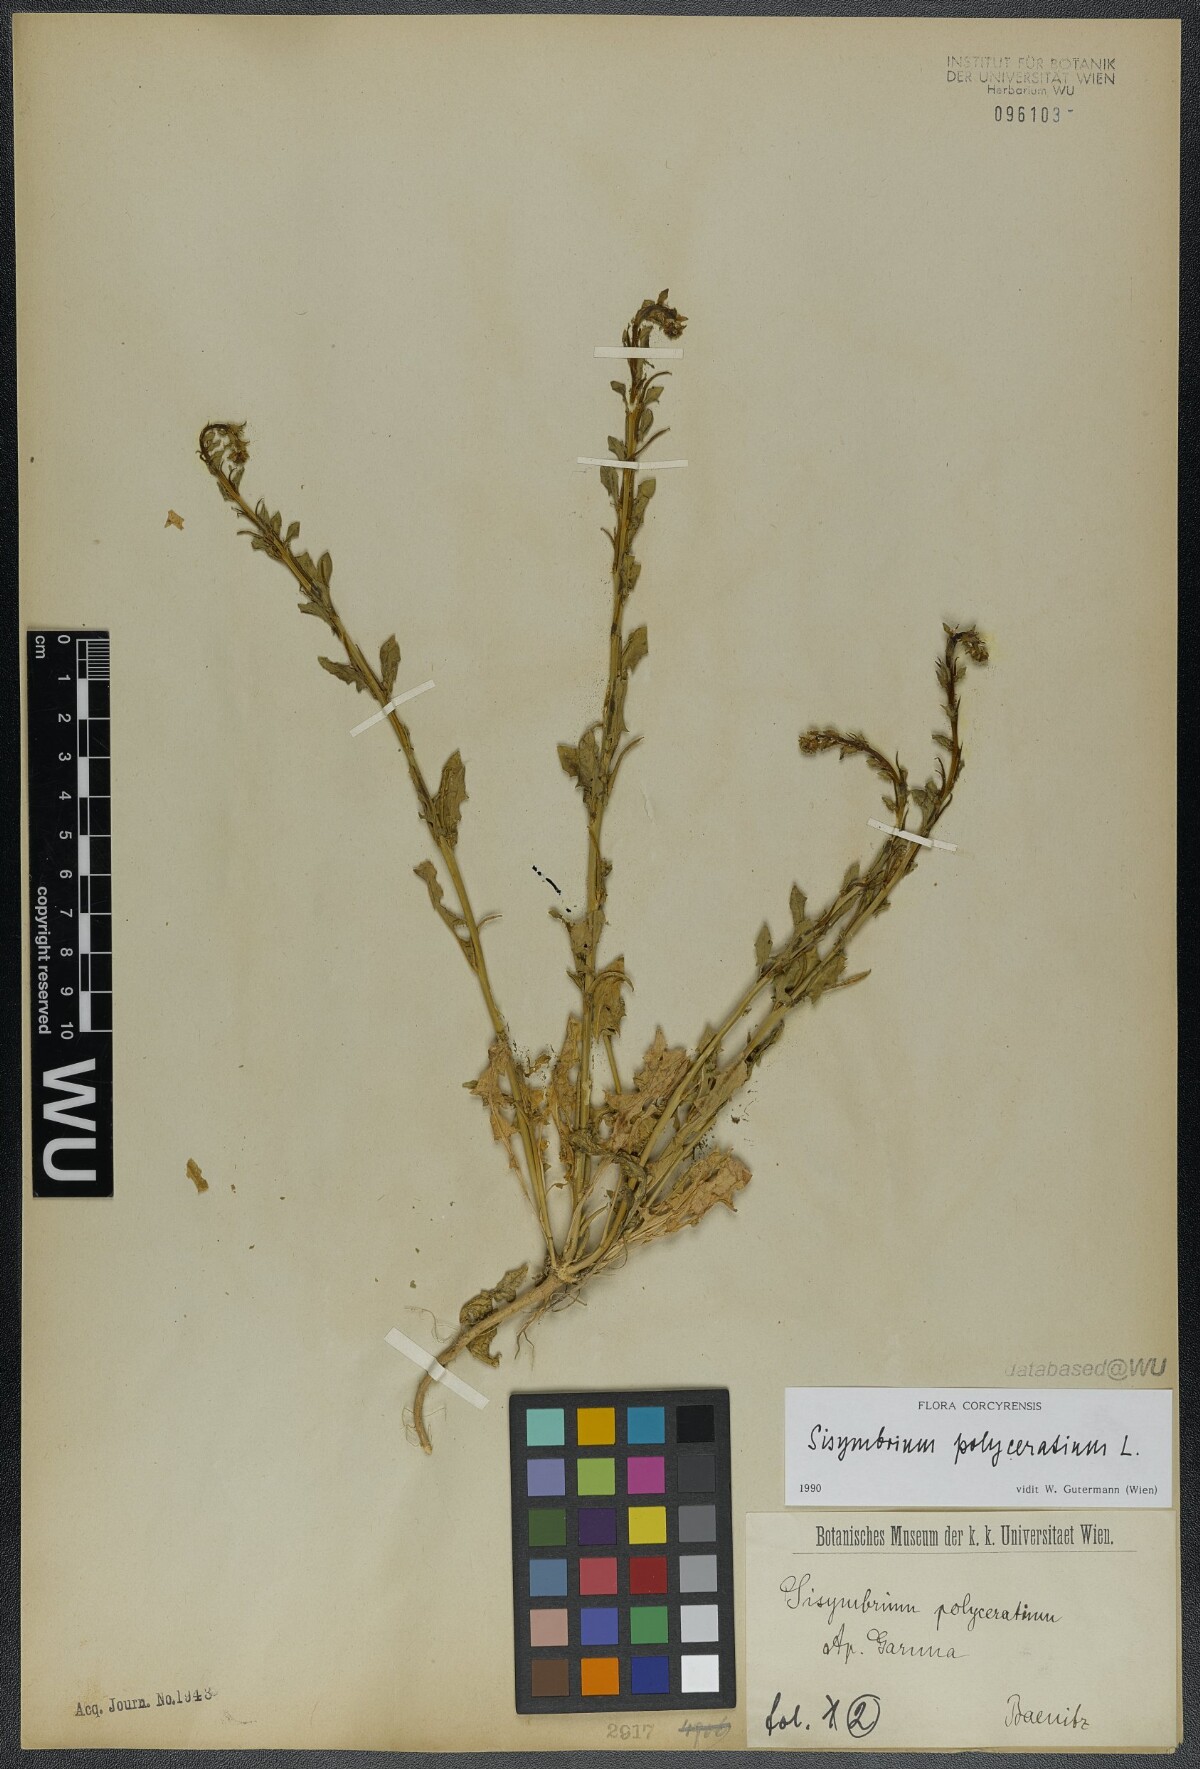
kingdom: Plantae
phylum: Tracheophyta
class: Magnoliopsida
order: Brassicales
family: Brassicaceae
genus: Sisymbrium
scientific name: Sisymbrium polyceratium
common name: Shortfruit hedgemustard
